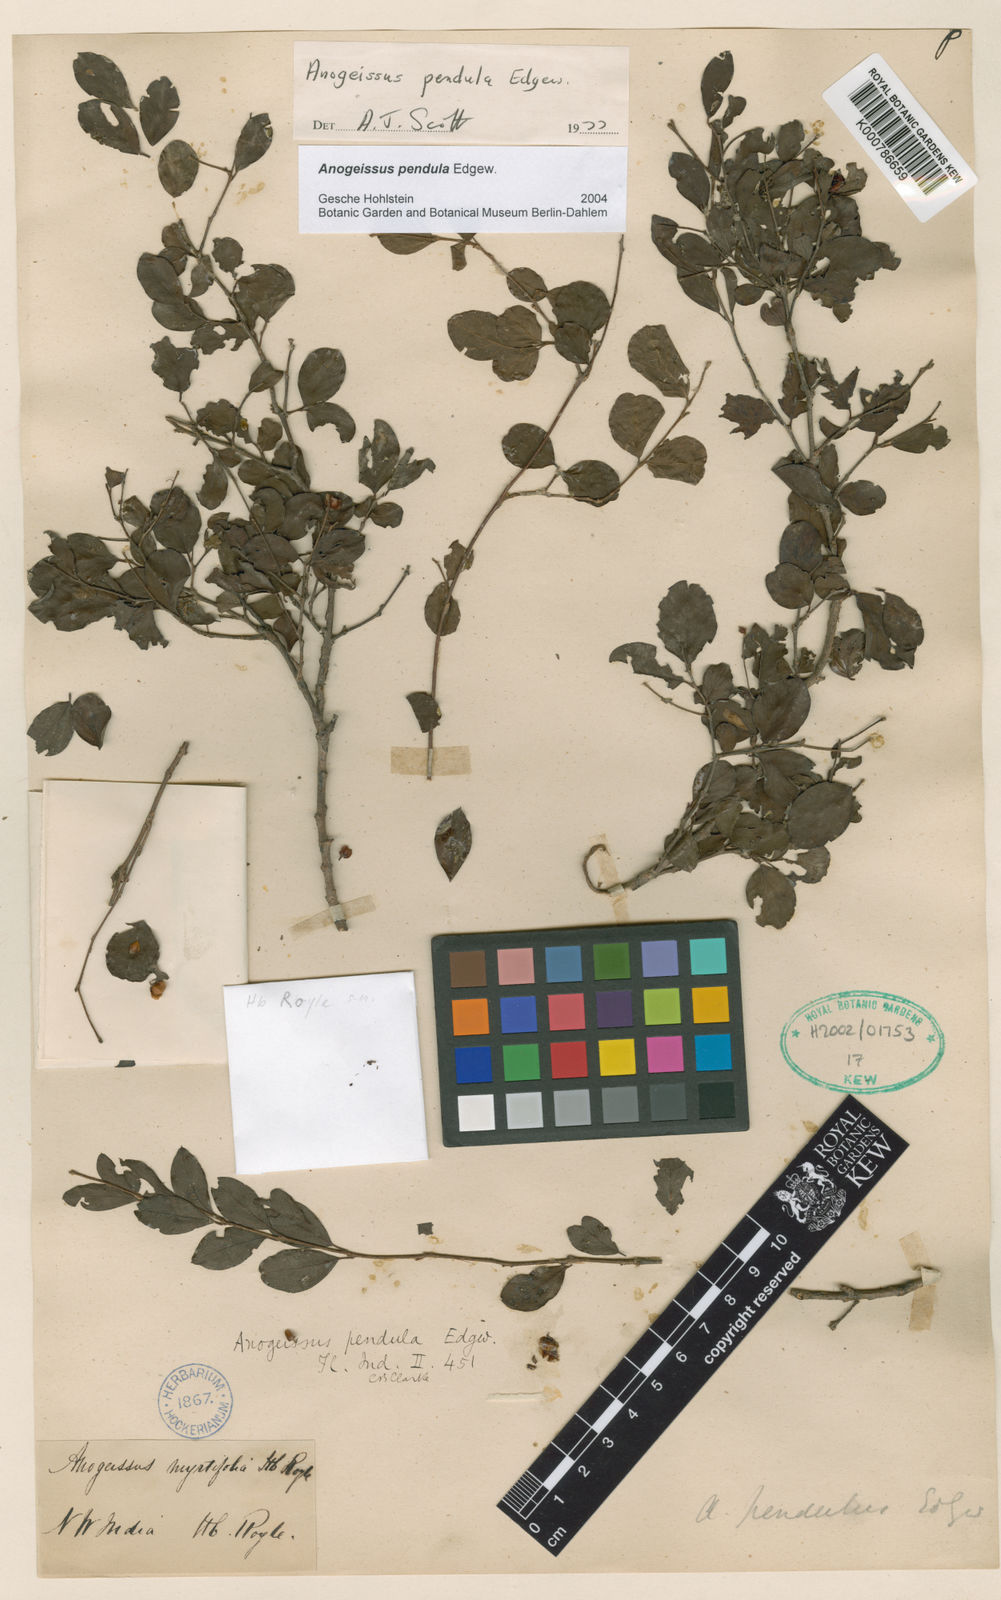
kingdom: Plantae
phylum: Tracheophyta
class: Magnoliopsida
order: Myrtales
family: Combretaceae
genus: Terminalia
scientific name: Terminalia pendula
